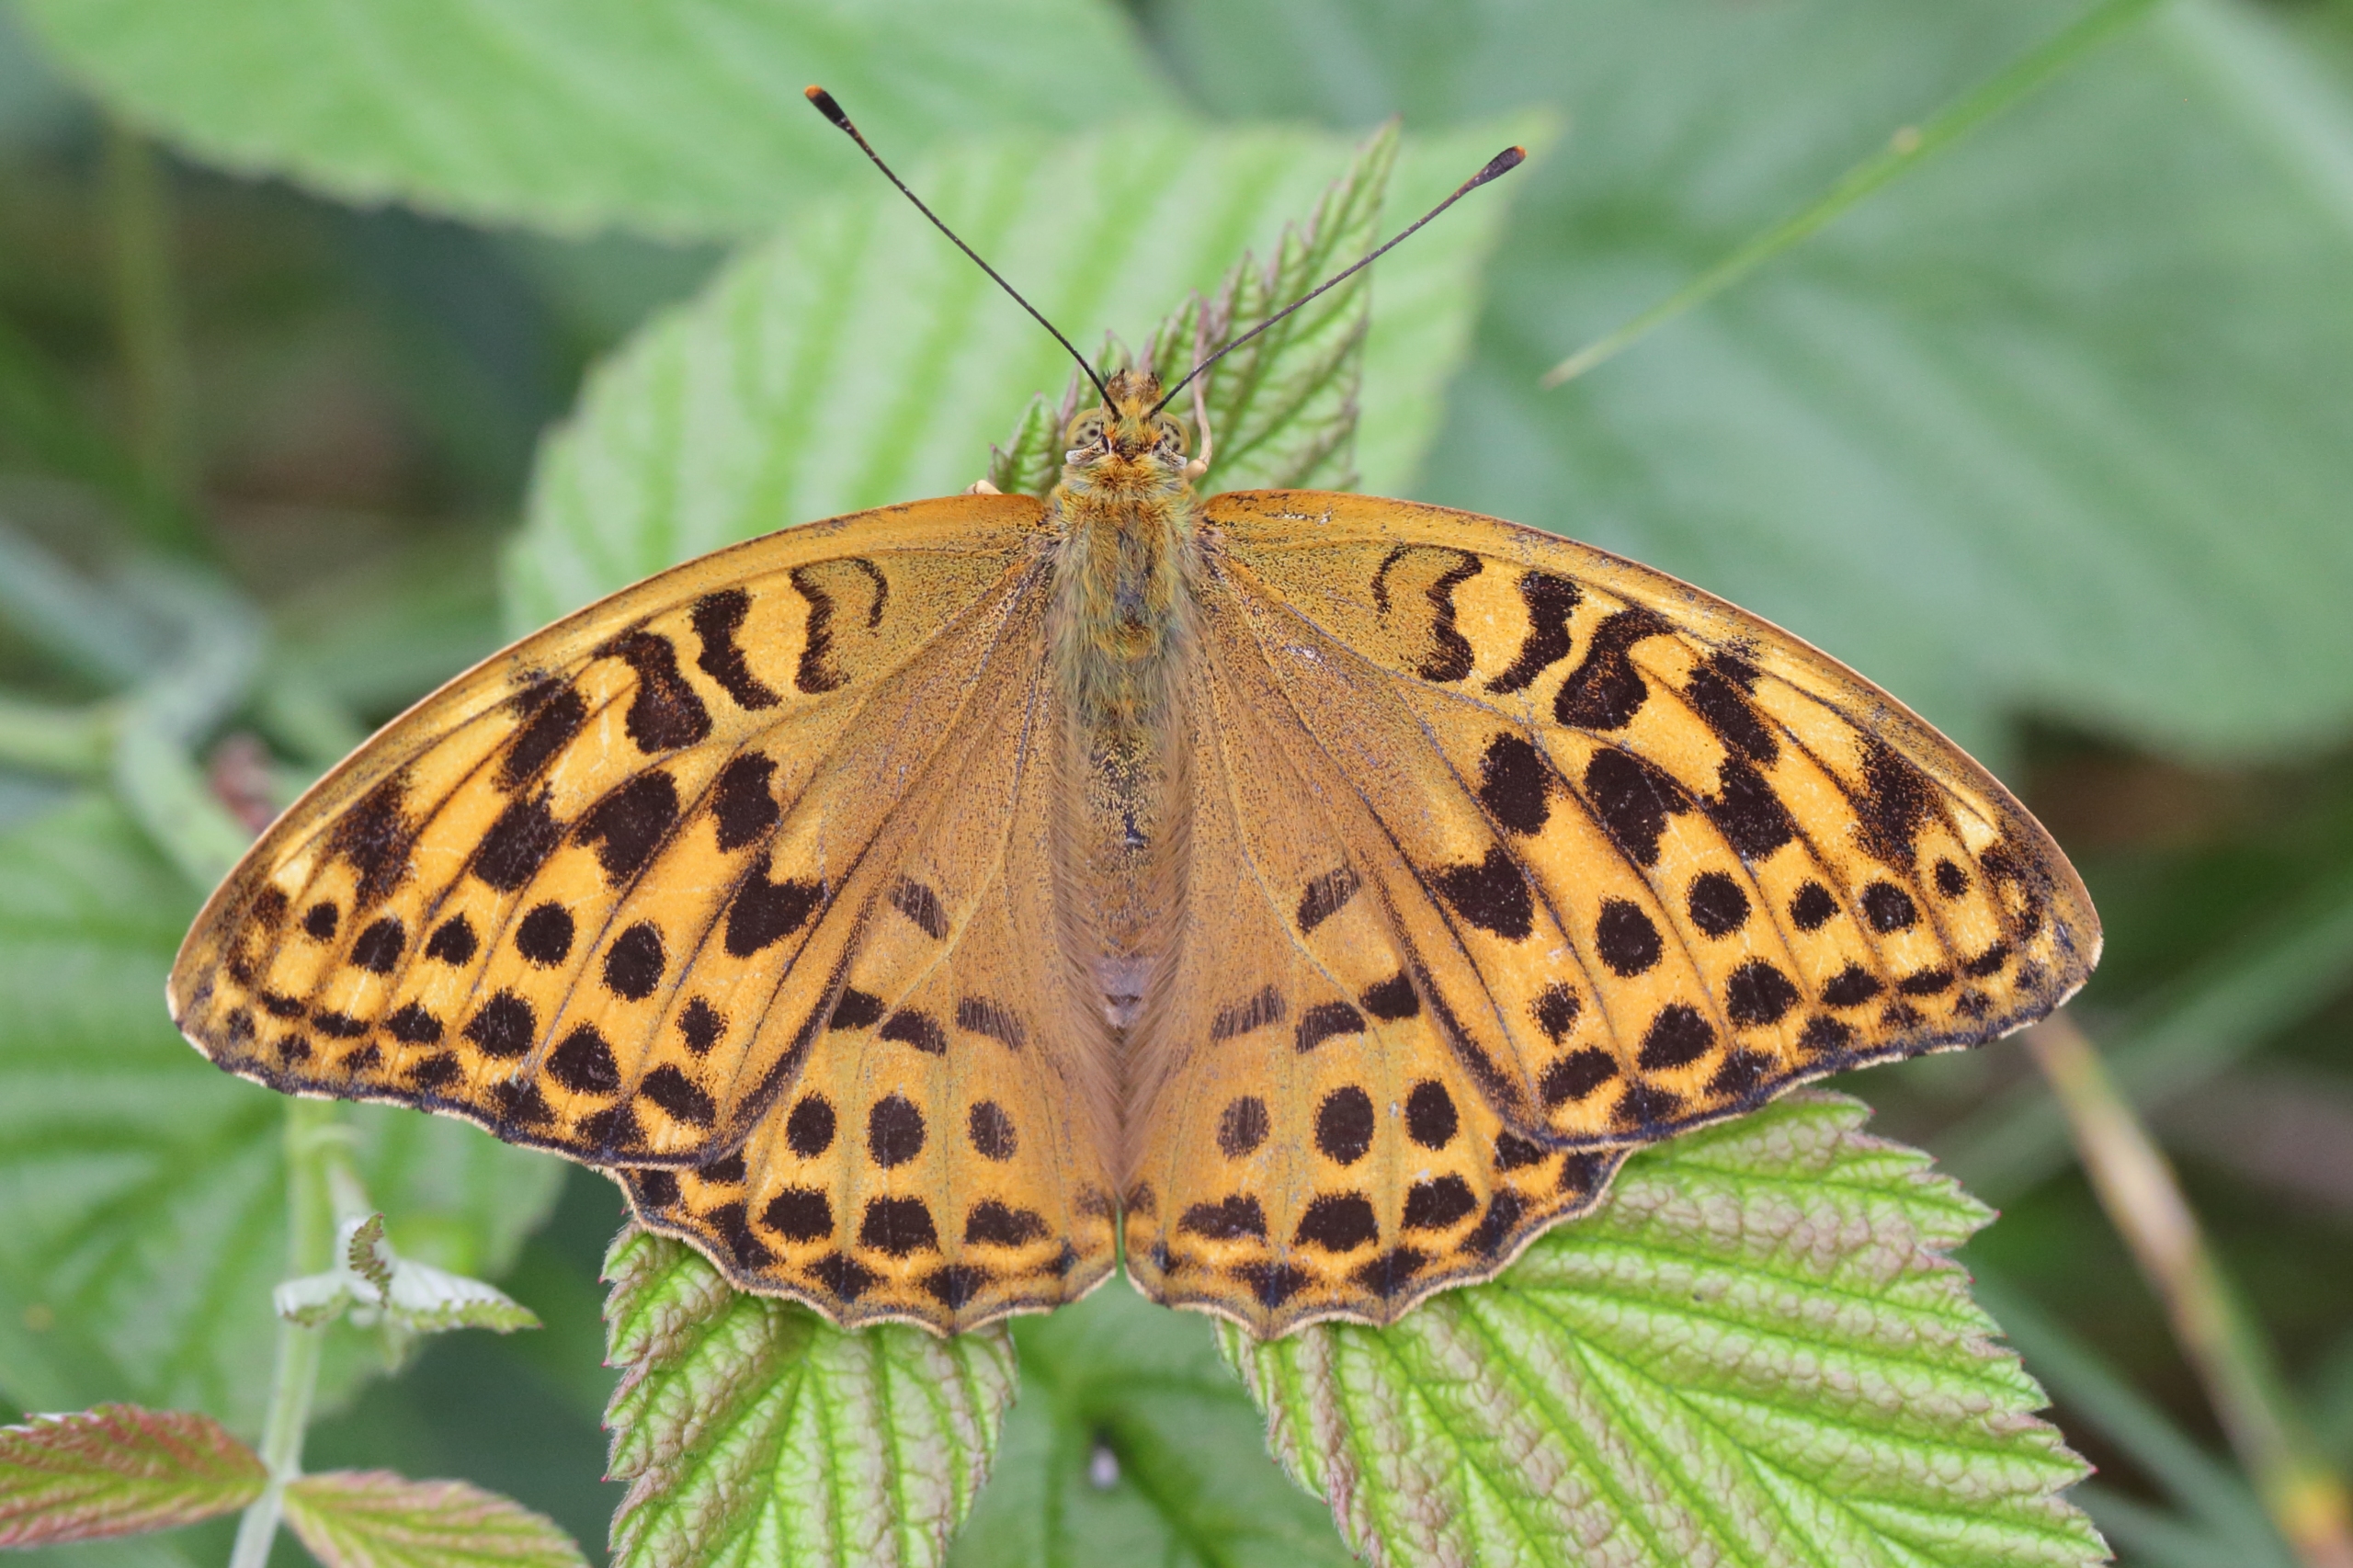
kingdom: Animalia
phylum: Arthropoda
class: Insecta
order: Lepidoptera
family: Nymphalidae
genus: Argynnis
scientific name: Argynnis paphia
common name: Kejserkåbe
